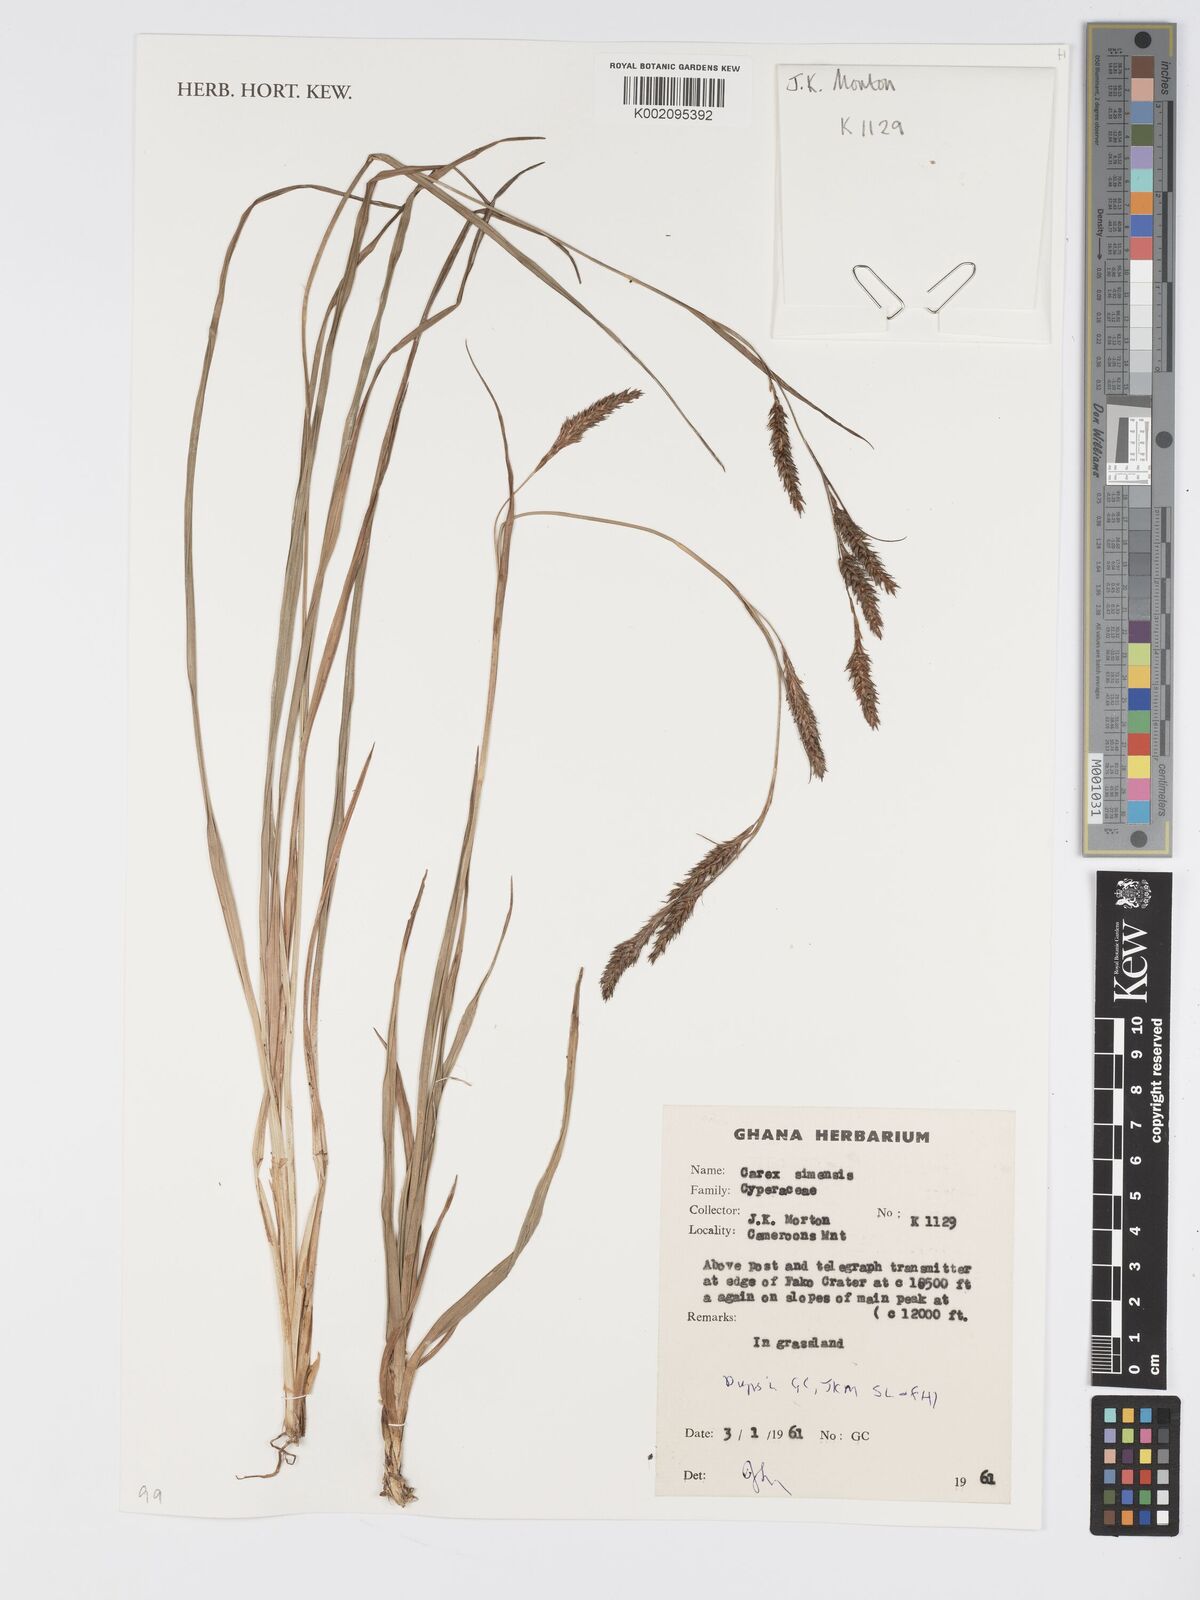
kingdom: Plantae
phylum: Tracheophyta
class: Liliopsida
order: Poales
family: Cyperaceae
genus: Carex
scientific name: Carex simensis
